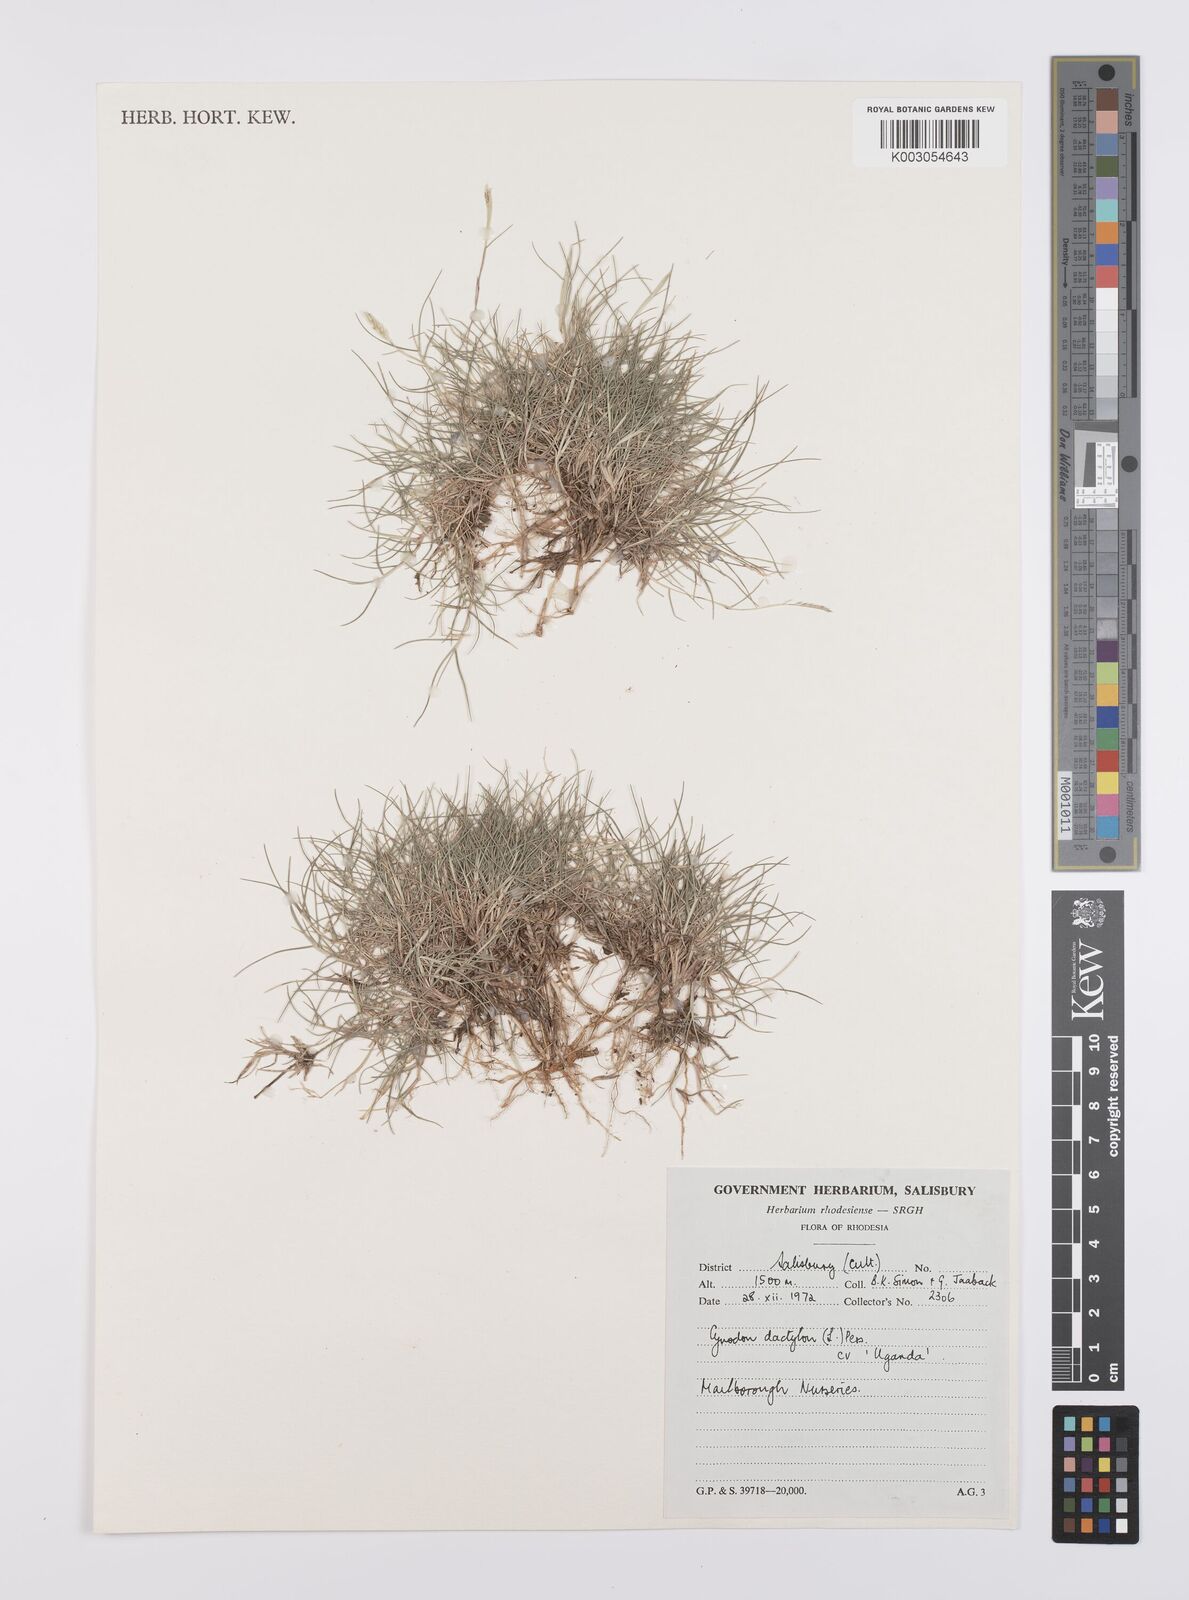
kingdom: Plantae
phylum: Tracheophyta
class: Liliopsida
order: Poales
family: Poaceae
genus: Cynodon
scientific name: Cynodon dactylon
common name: Bermuda grass
